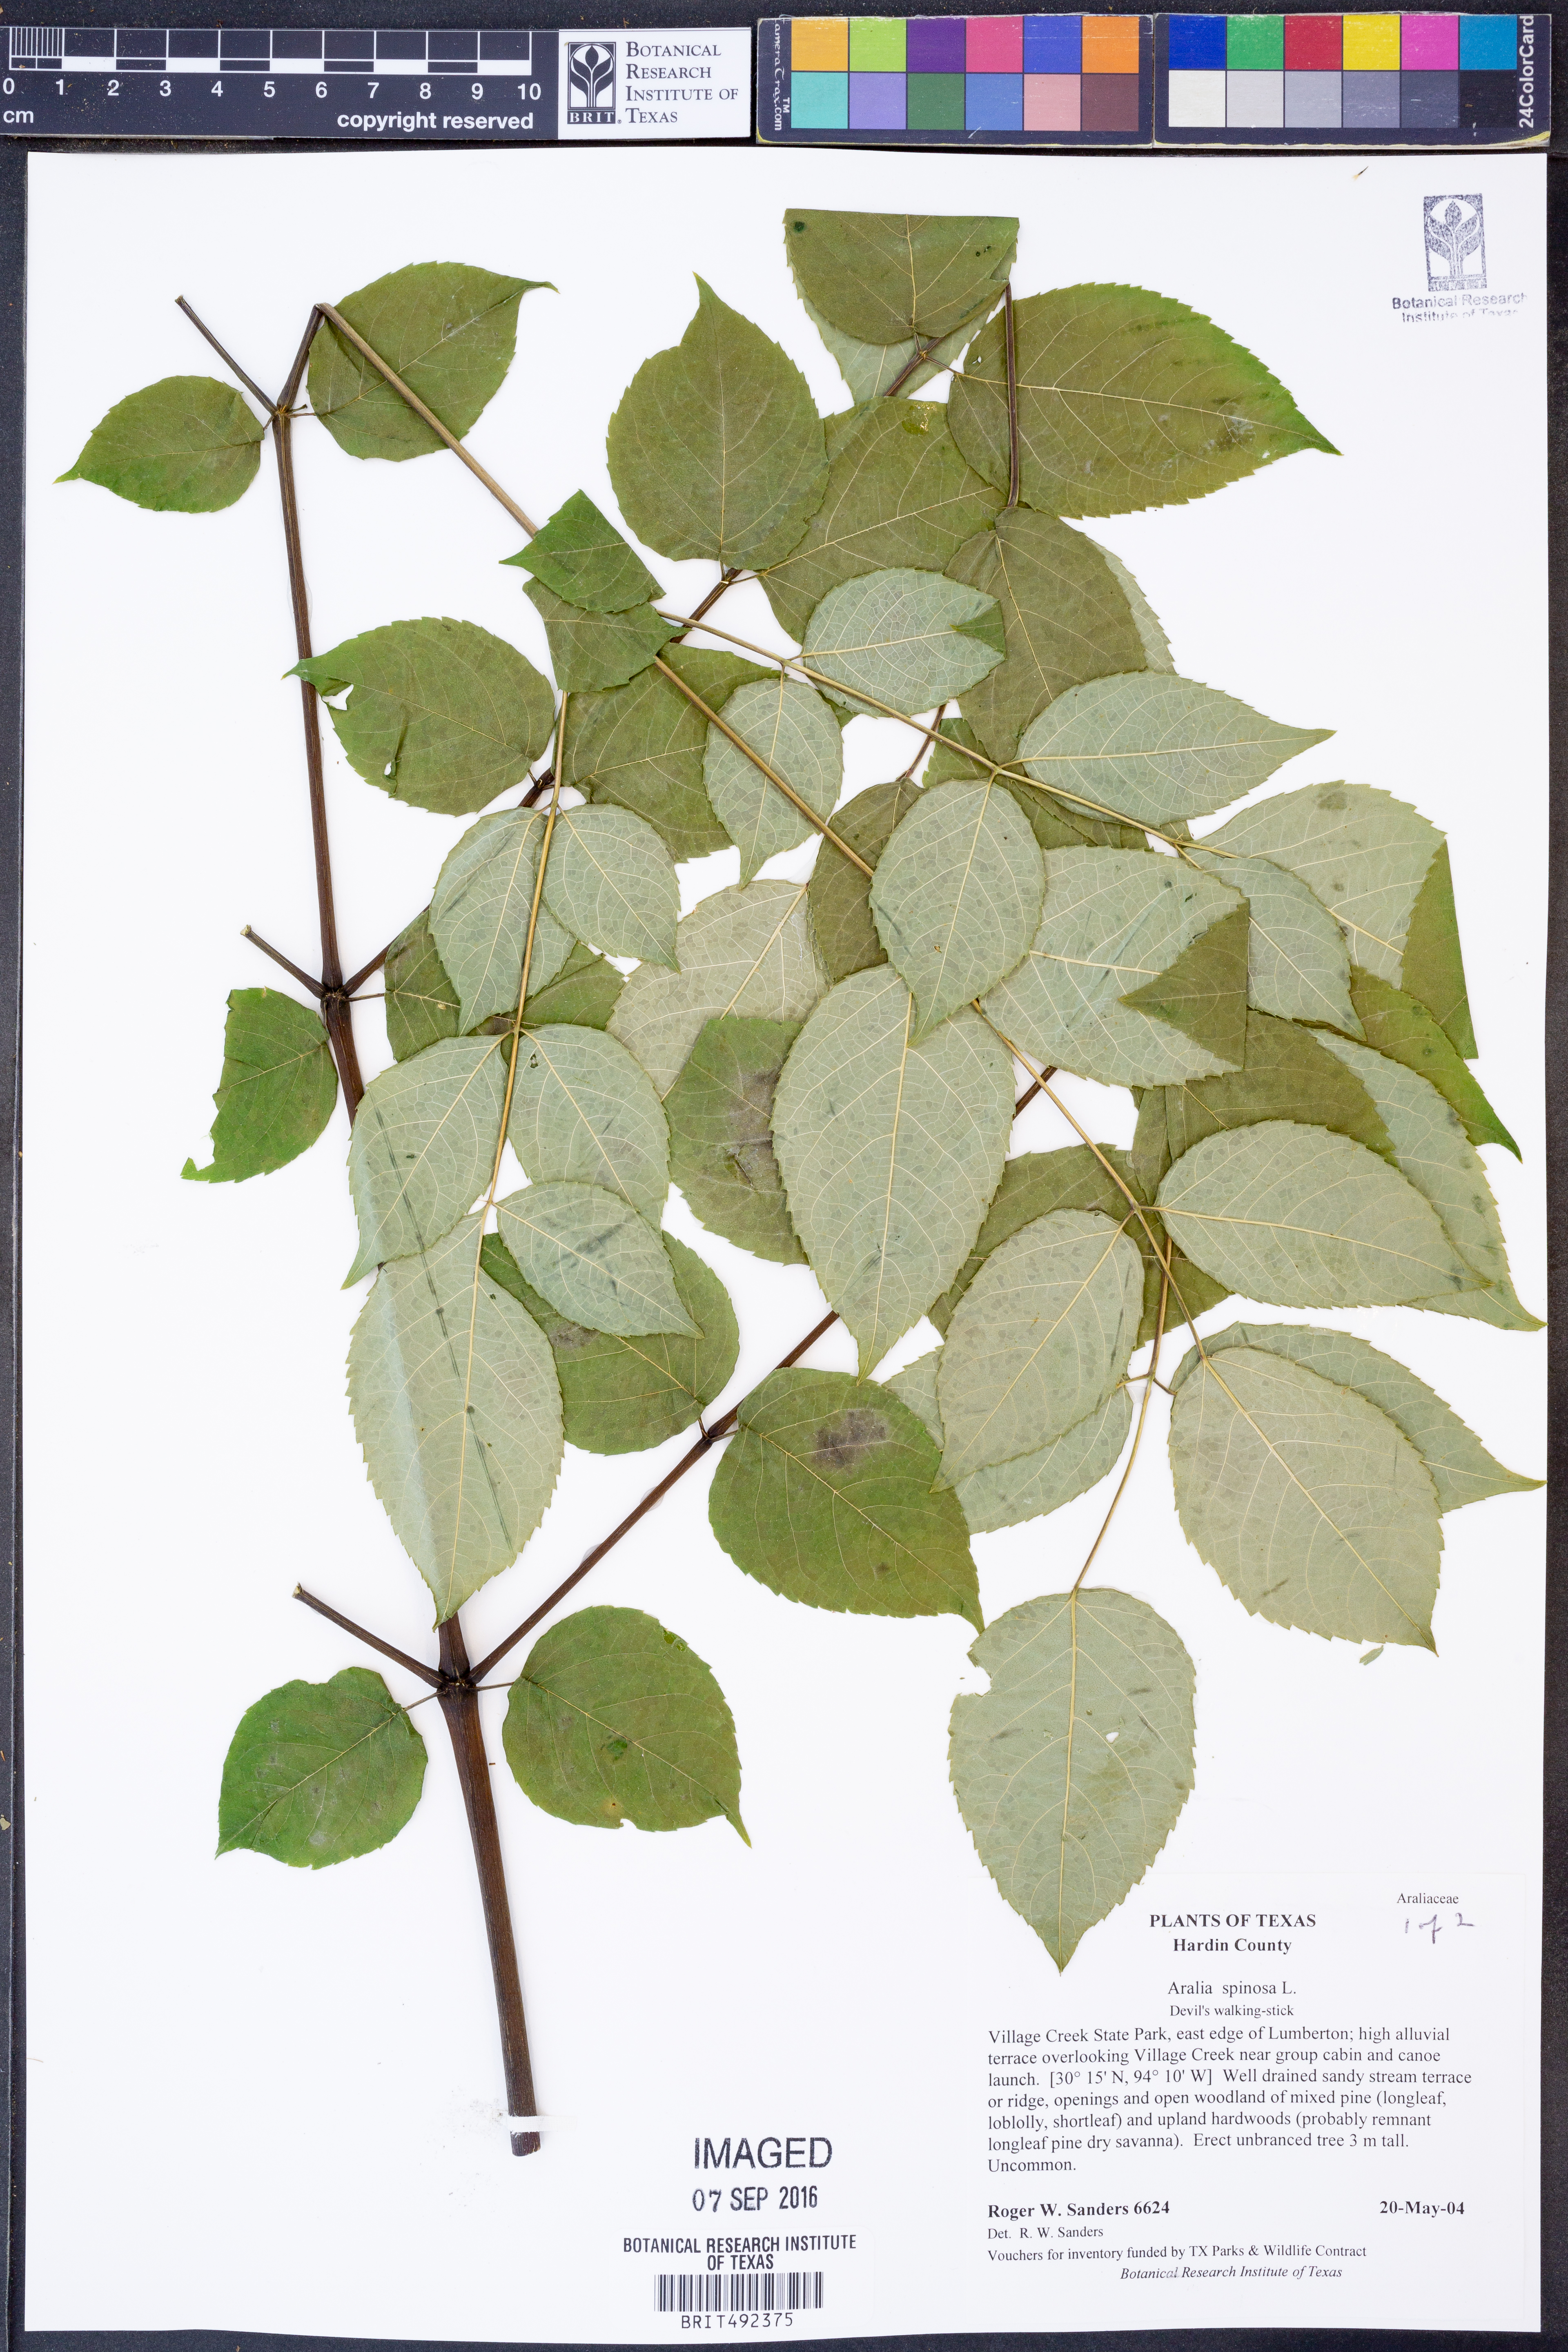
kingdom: Plantae
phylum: Tracheophyta
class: Magnoliopsida
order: Apiales
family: Araliaceae
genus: Aralia
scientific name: Aralia spinosa
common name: Hercules'-club
